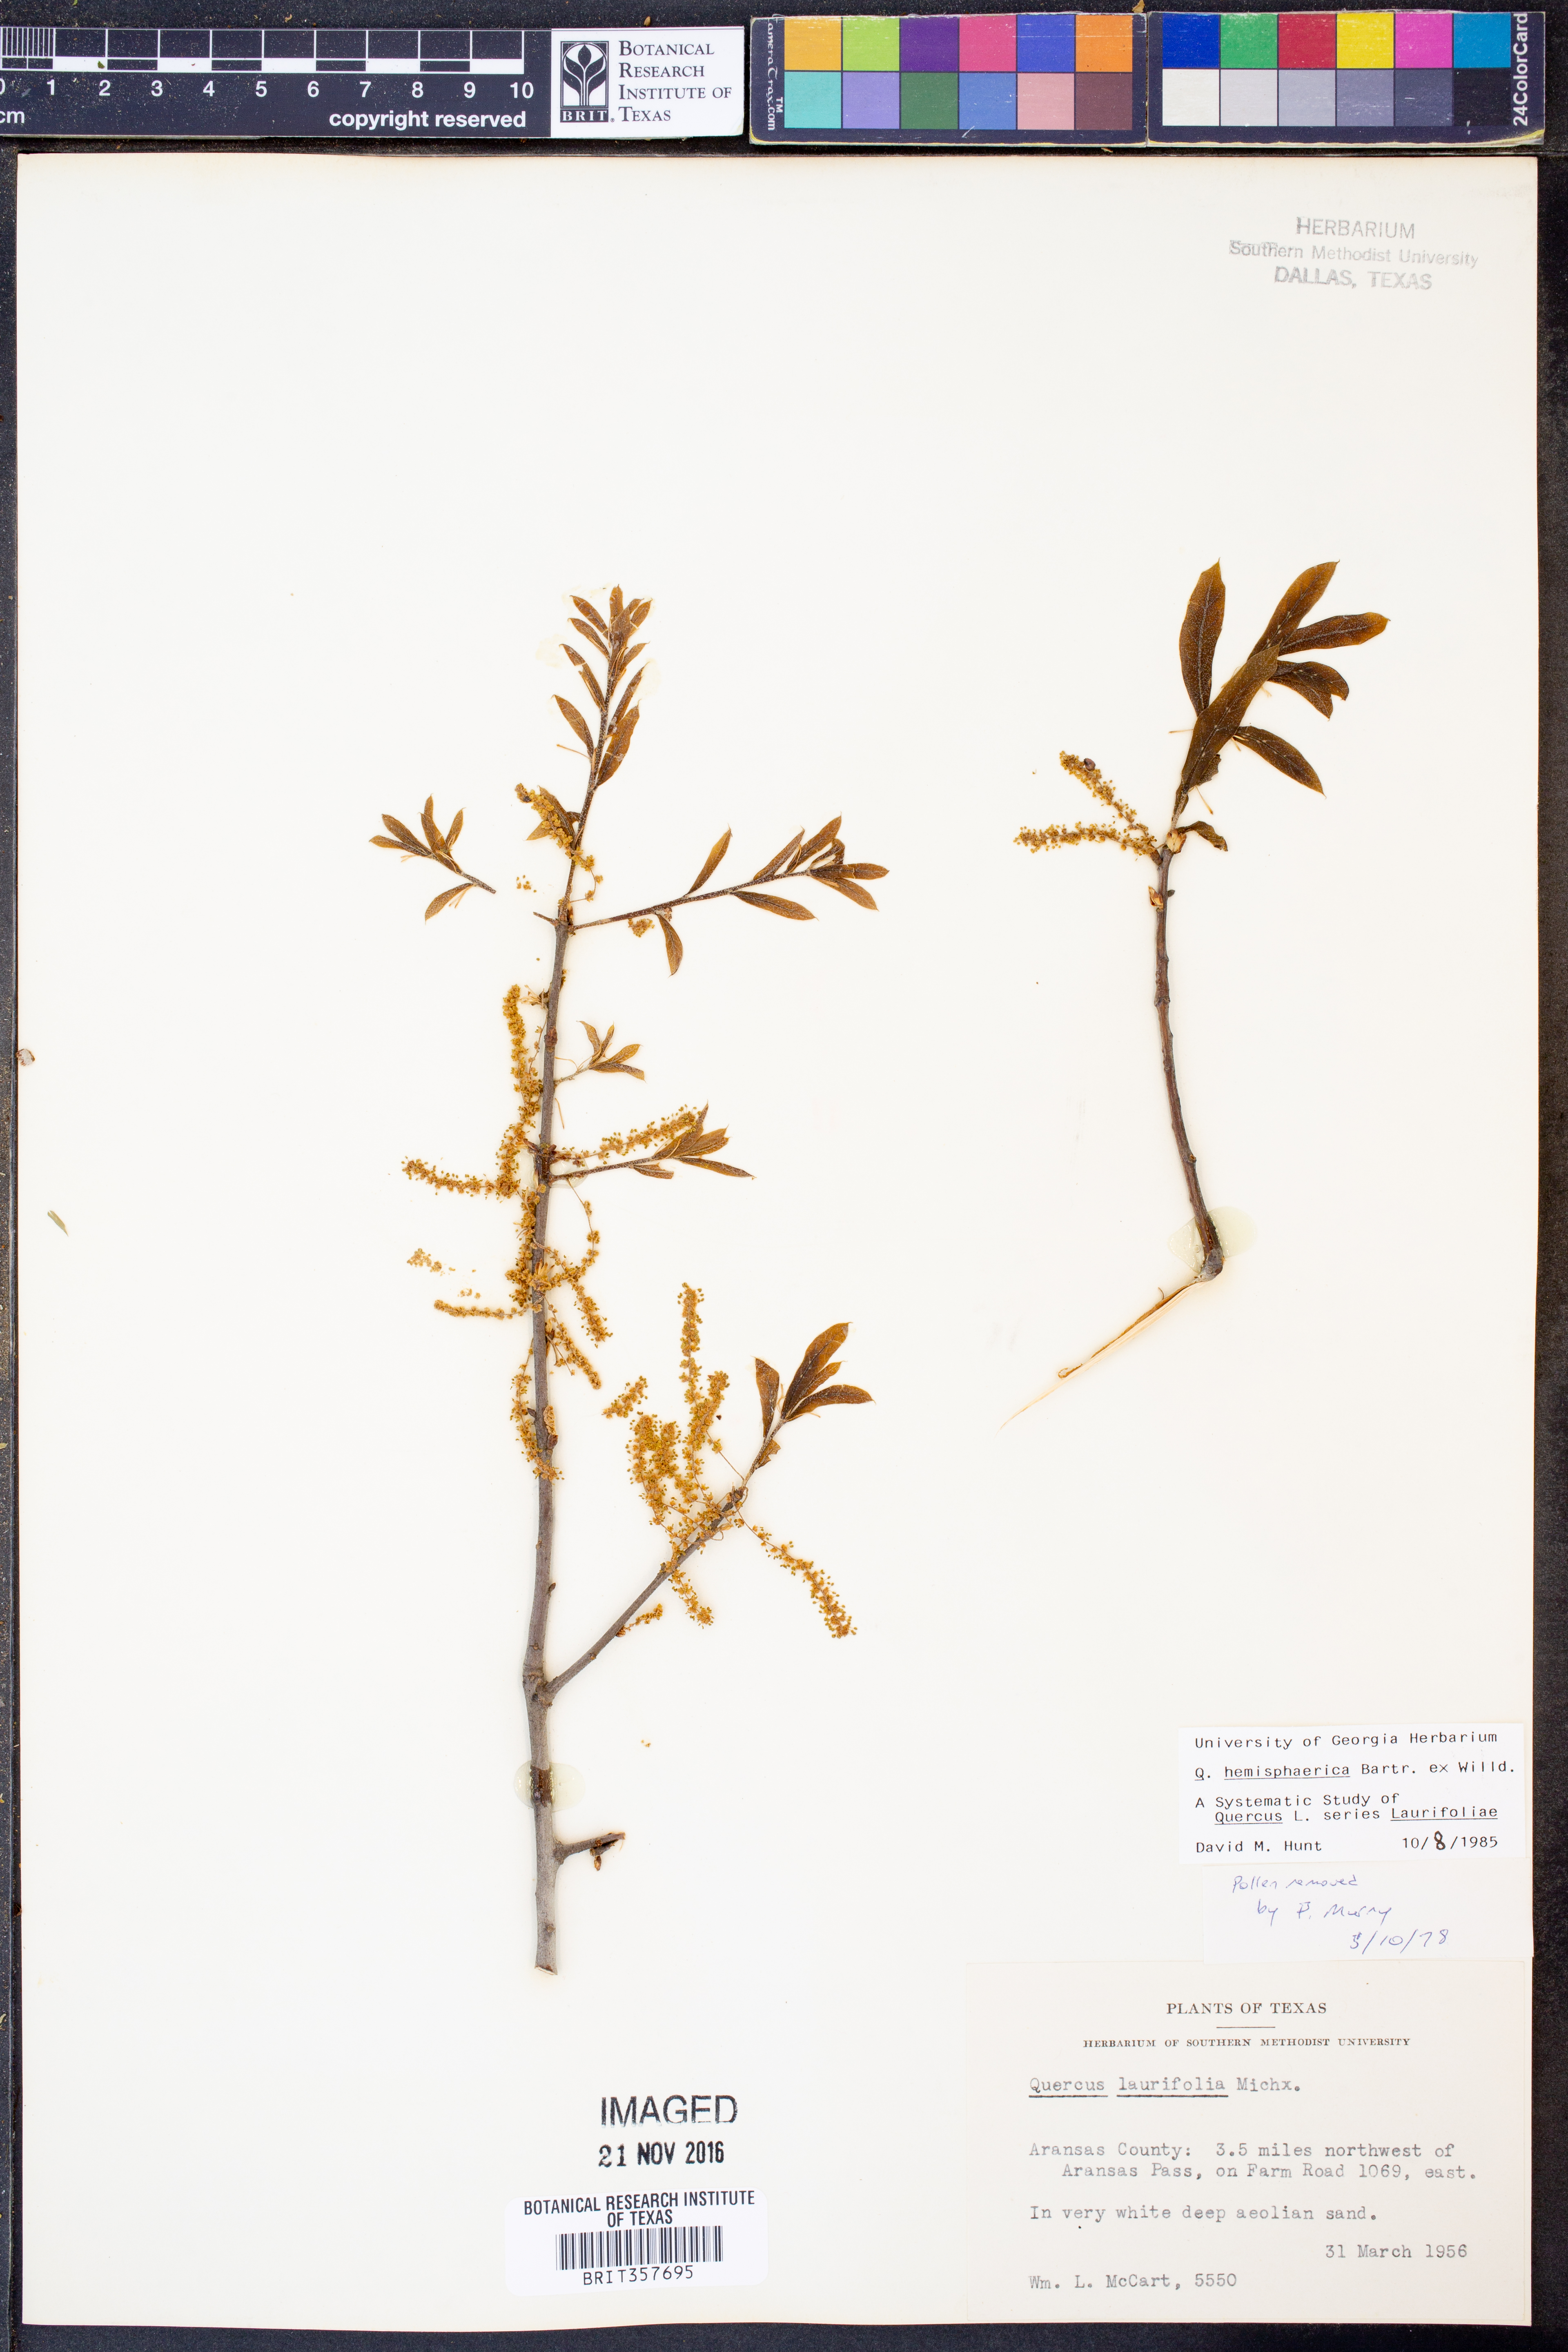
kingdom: Plantae
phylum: Tracheophyta
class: Magnoliopsida
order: Fagales
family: Fagaceae
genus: Quercus
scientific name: Quercus hemisphaerica
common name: Darlington oak
